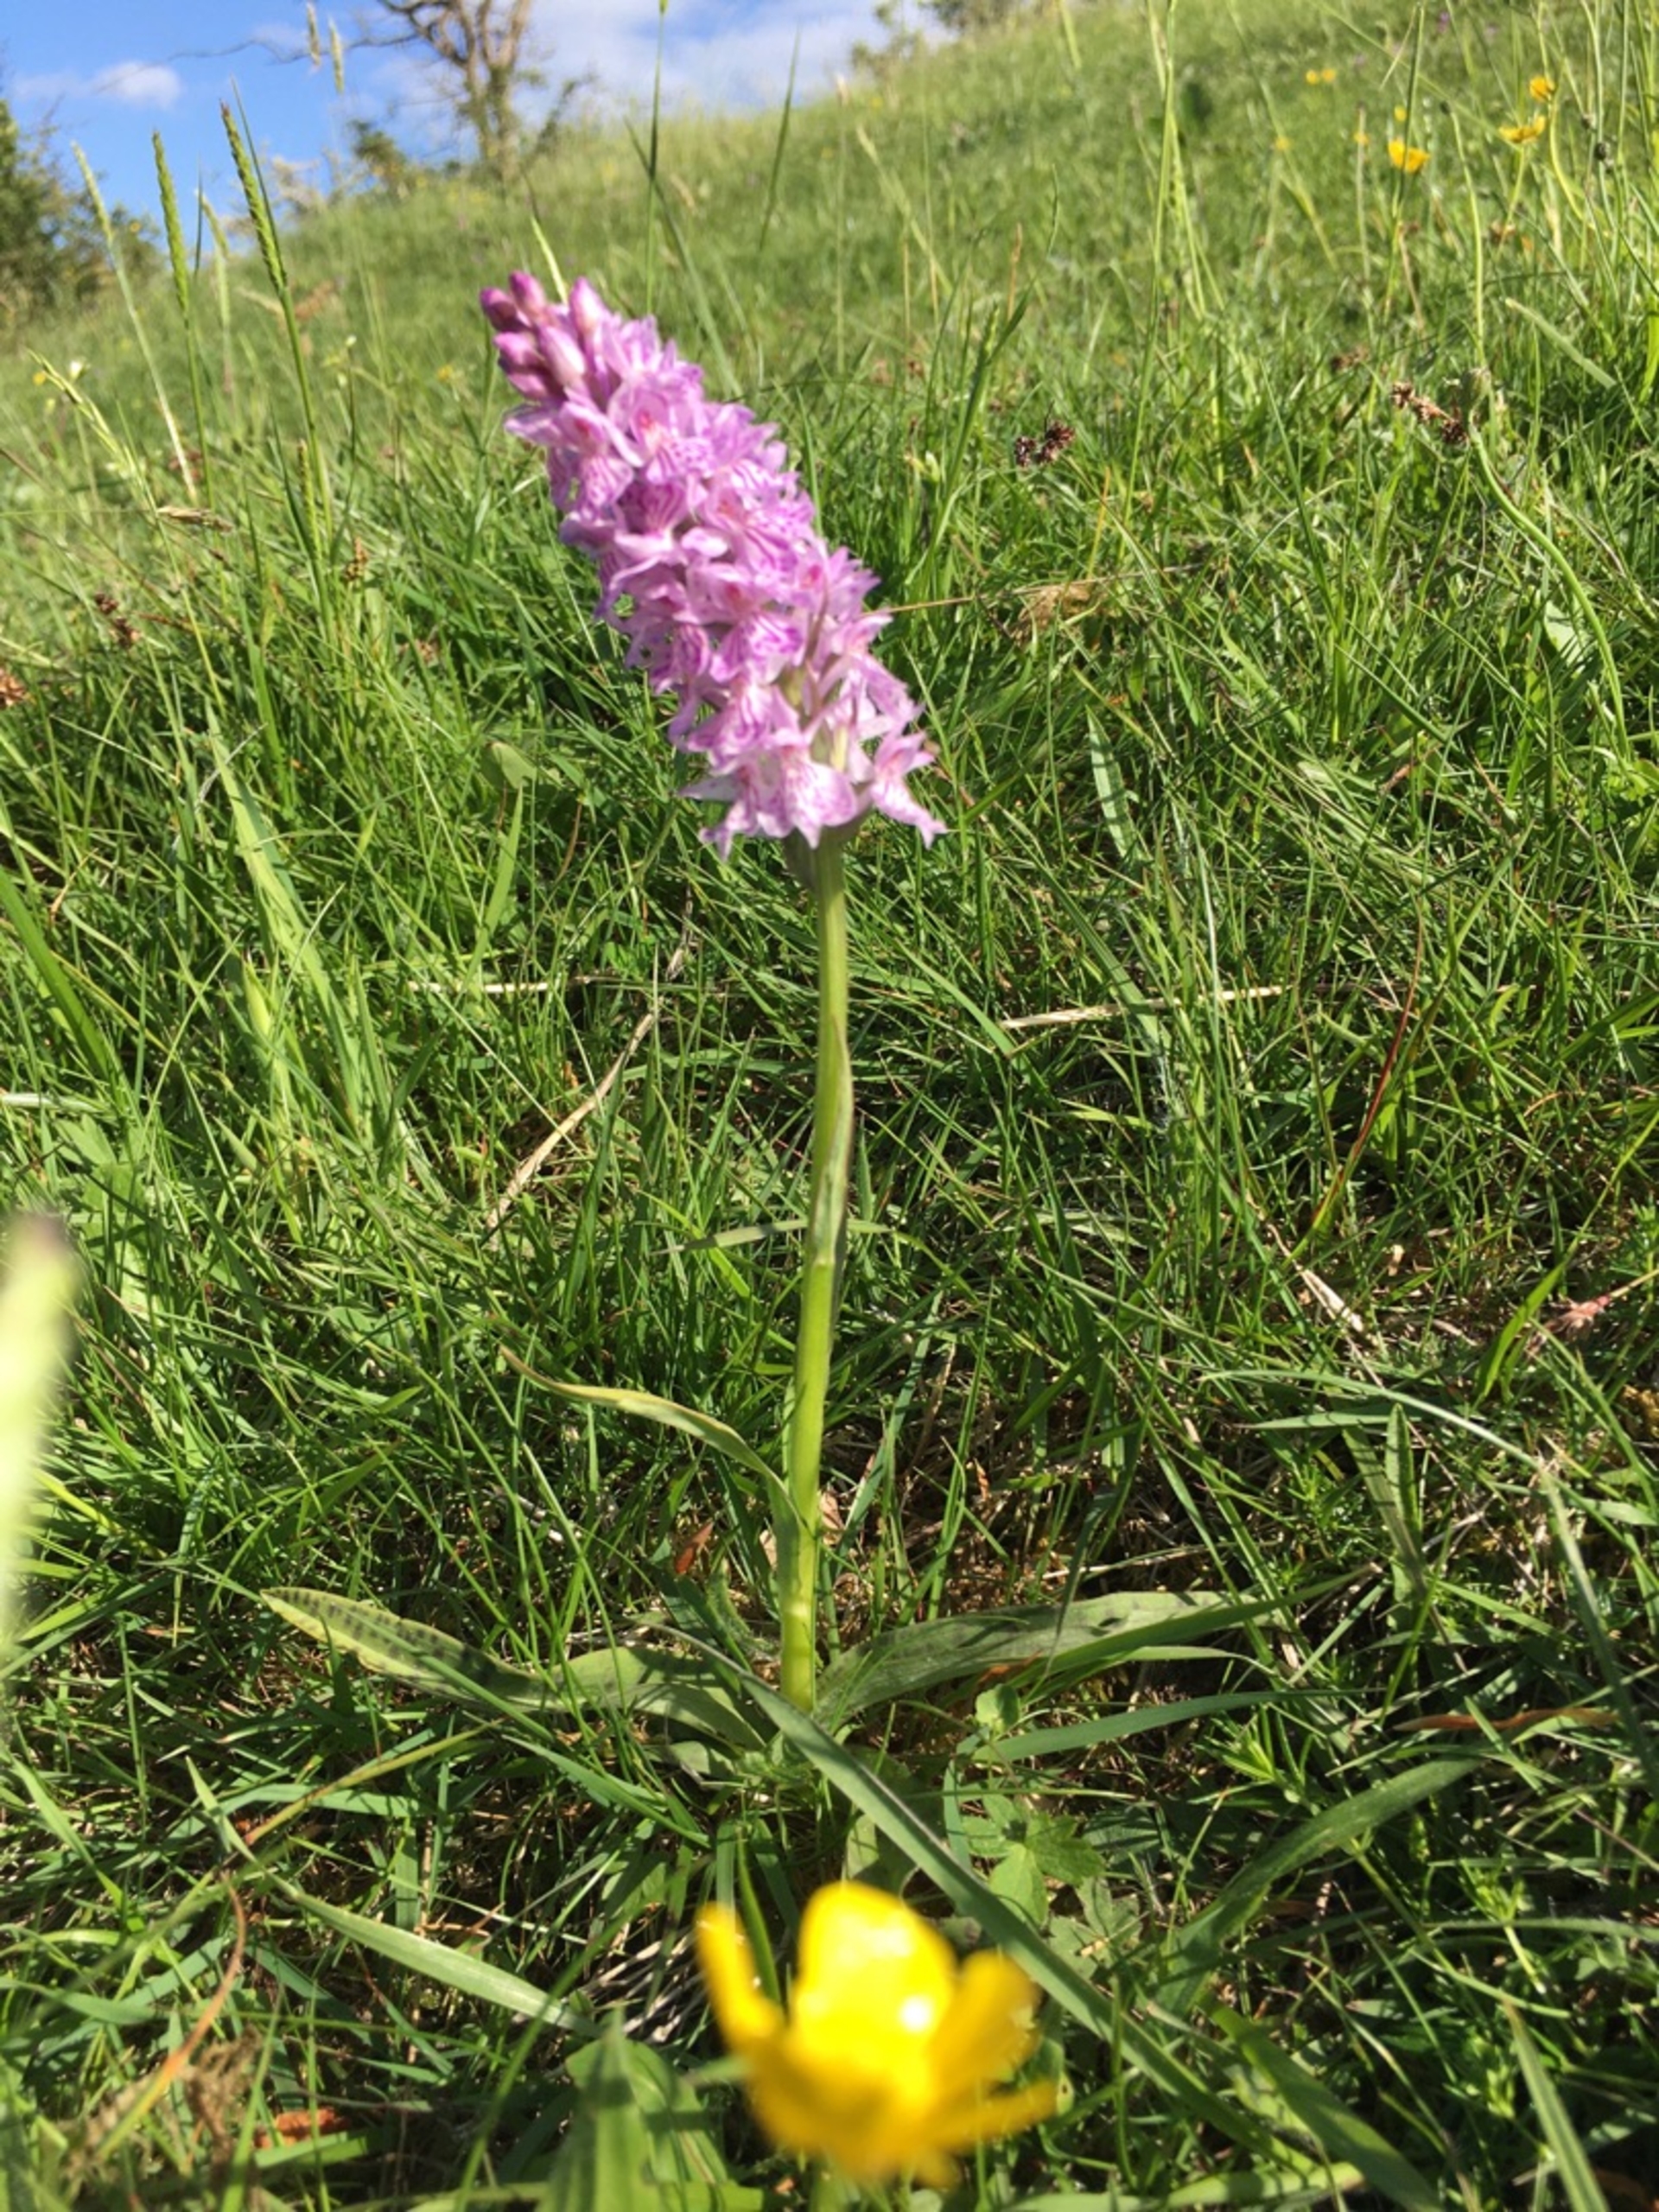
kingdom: Plantae
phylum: Tracheophyta
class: Liliopsida
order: Asparagales
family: Orchidaceae
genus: Dactylorhiza
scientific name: Dactylorhiza maculata
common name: Plettet gøgeurt (underart)
